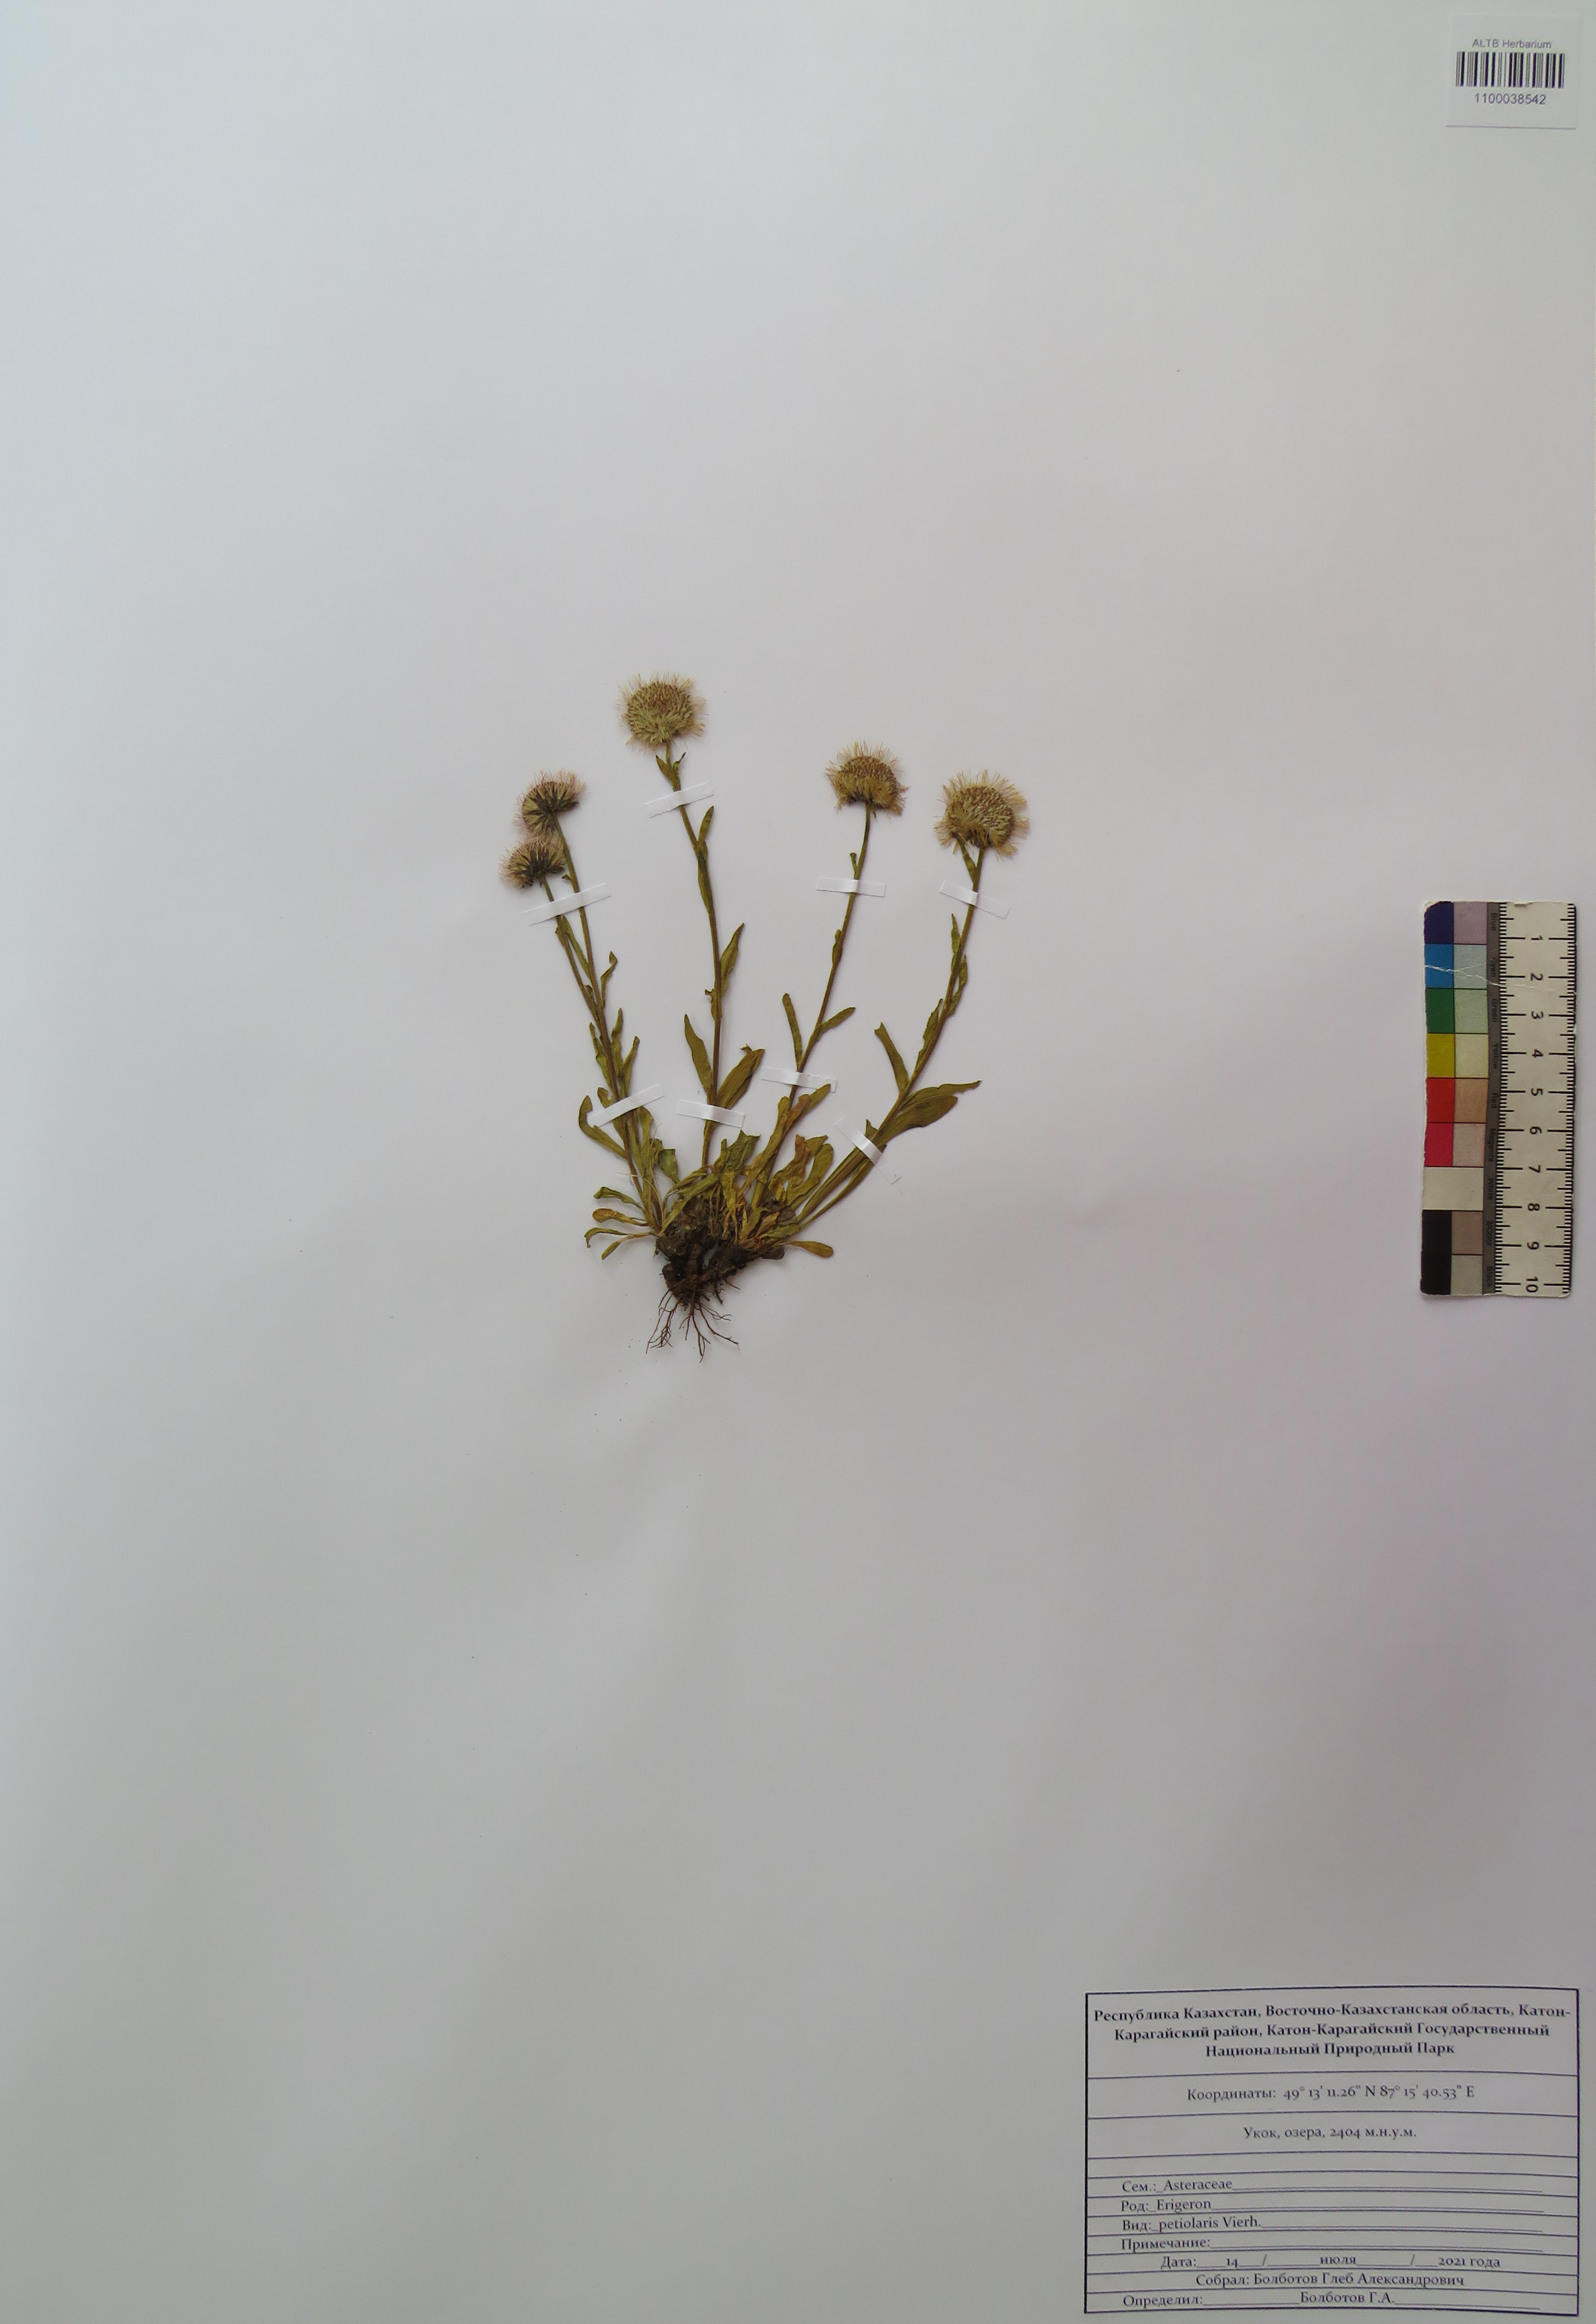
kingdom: Plantae
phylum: Tracheophyta
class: Magnoliopsida
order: Asterales
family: Asteraceae
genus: Erigeron
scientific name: Erigeron petiolaris
